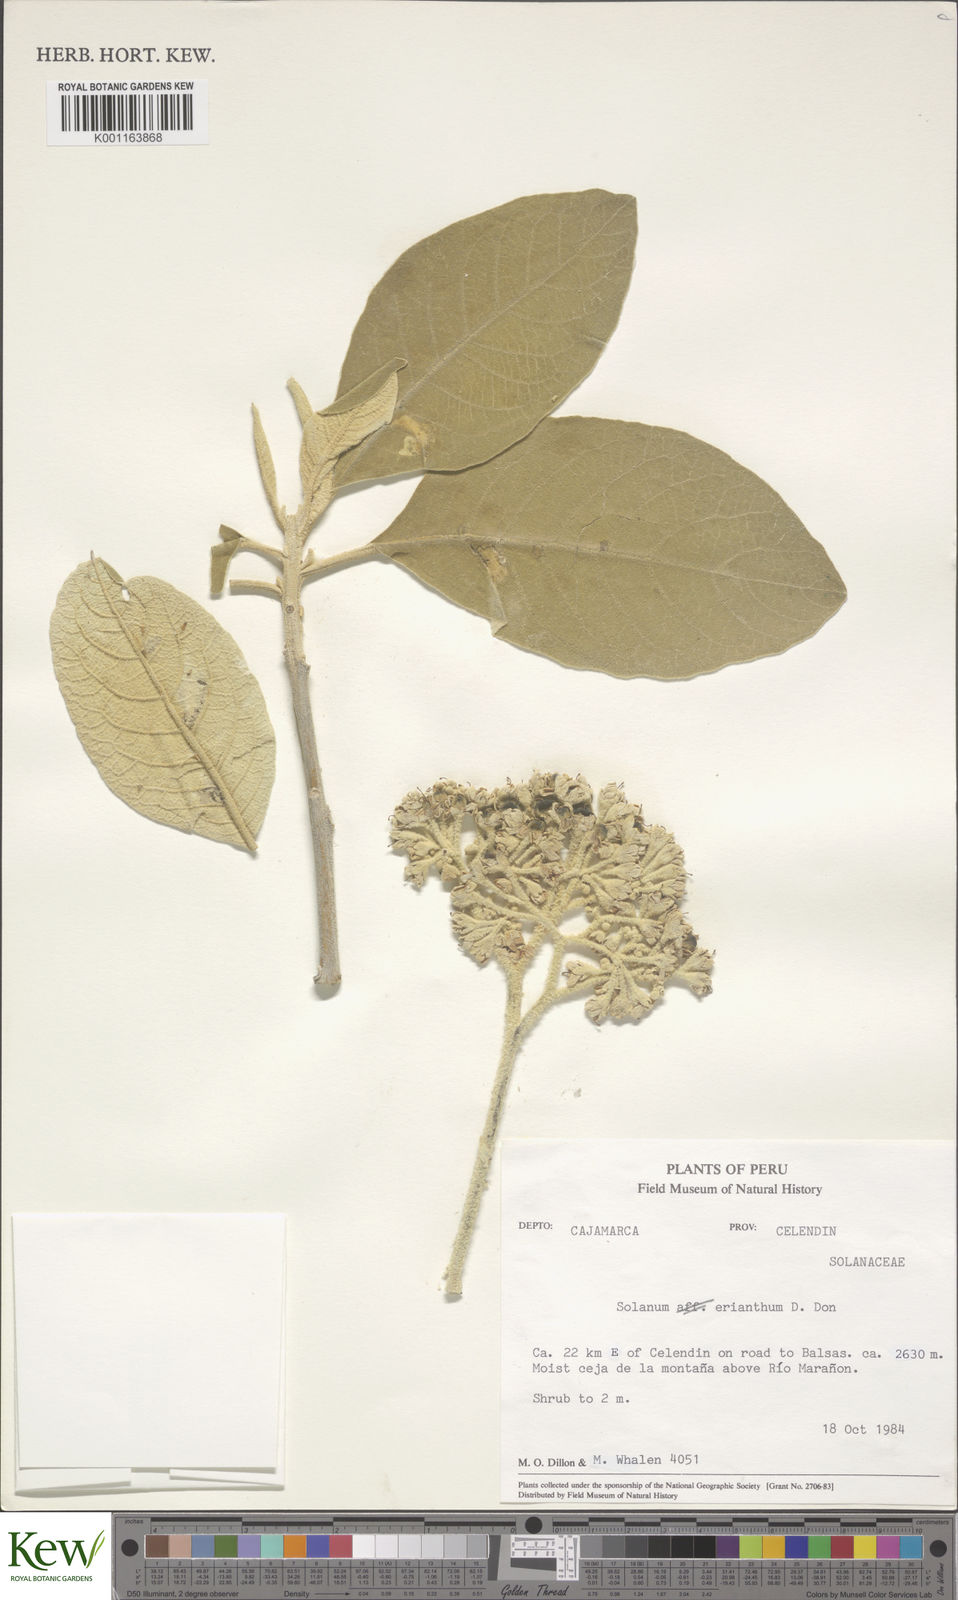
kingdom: Plantae
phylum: Tracheophyta
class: Magnoliopsida
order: Solanales
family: Solanaceae
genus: Solanum
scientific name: Solanum erianthum
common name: Tobacco-tree
